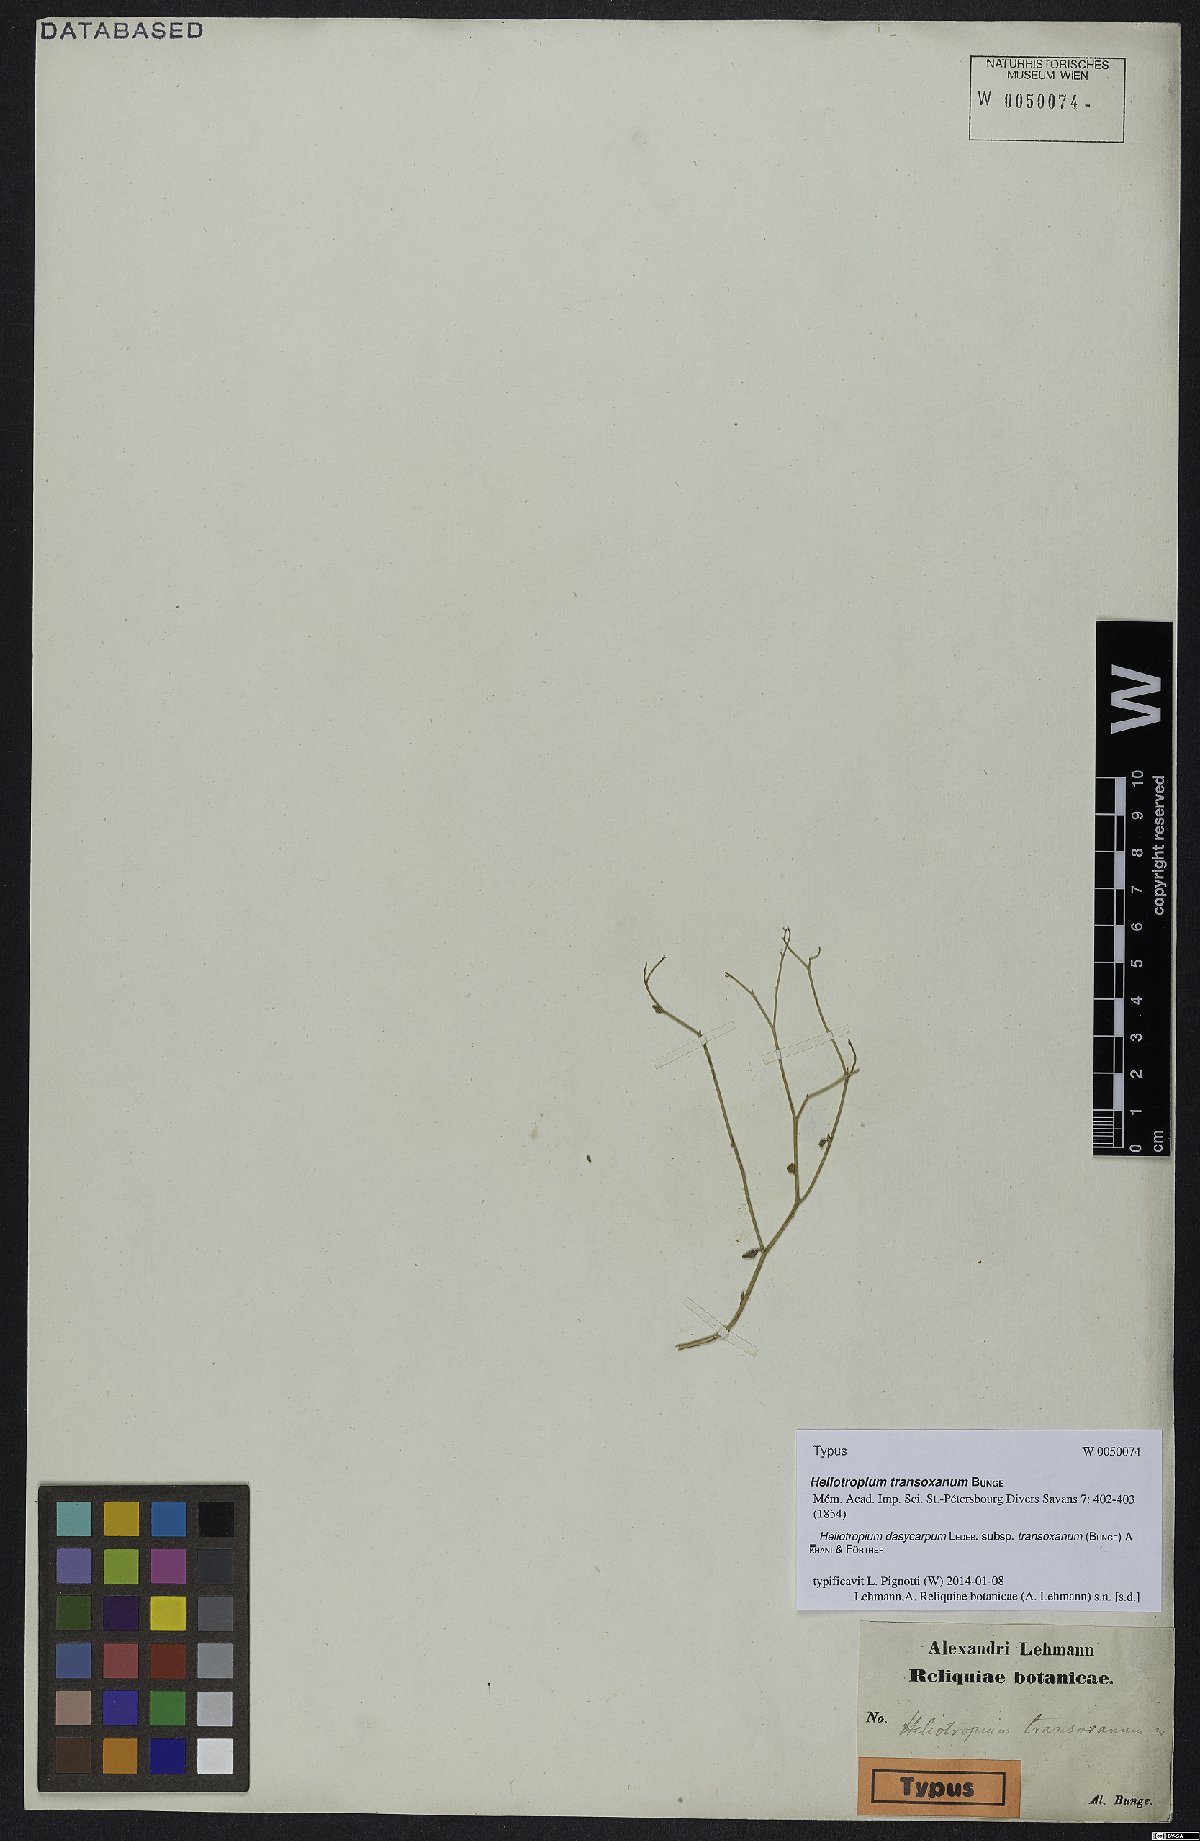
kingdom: Plantae
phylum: Tracheophyta
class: Magnoliopsida
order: Boraginales
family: Heliotropiaceae
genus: Heliotropium
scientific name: Heliotropium dasycarpum
